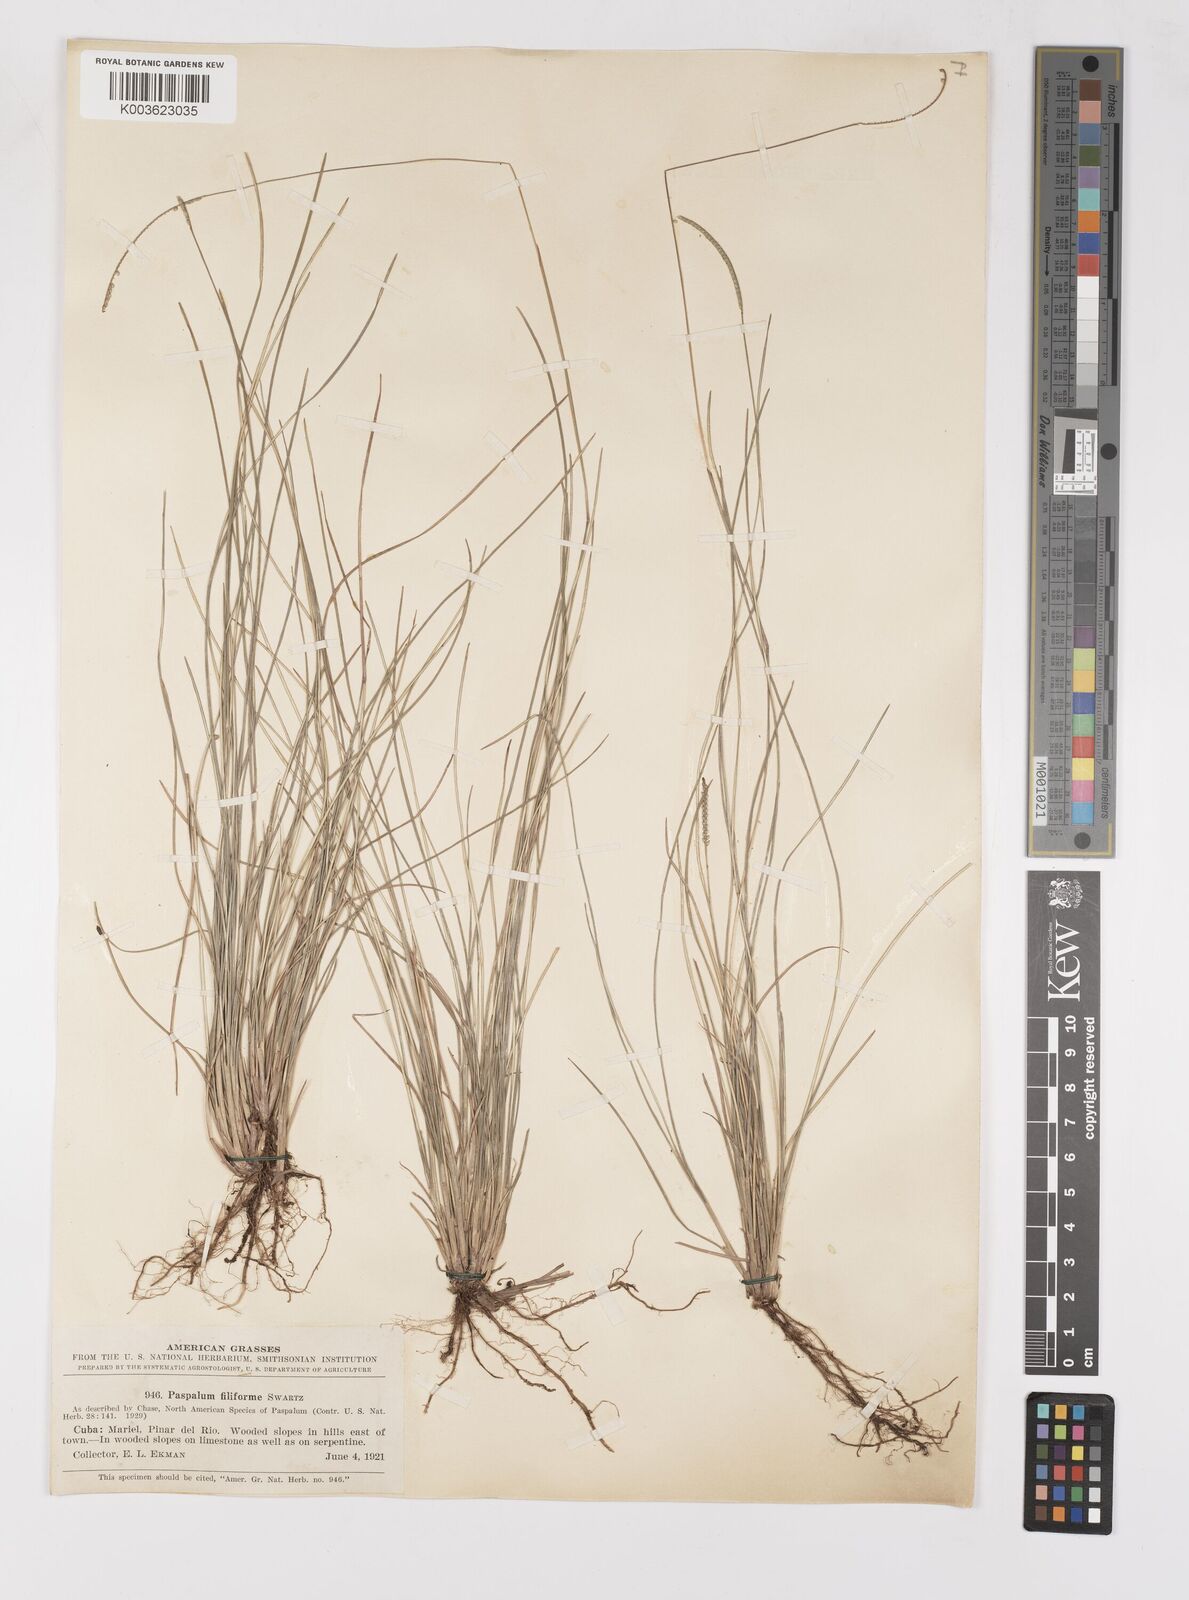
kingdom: Plantae
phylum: Tracheophyta
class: Liliopsida
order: Poales
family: Poaceae
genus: Paspalum
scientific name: Paspalum filiforme
